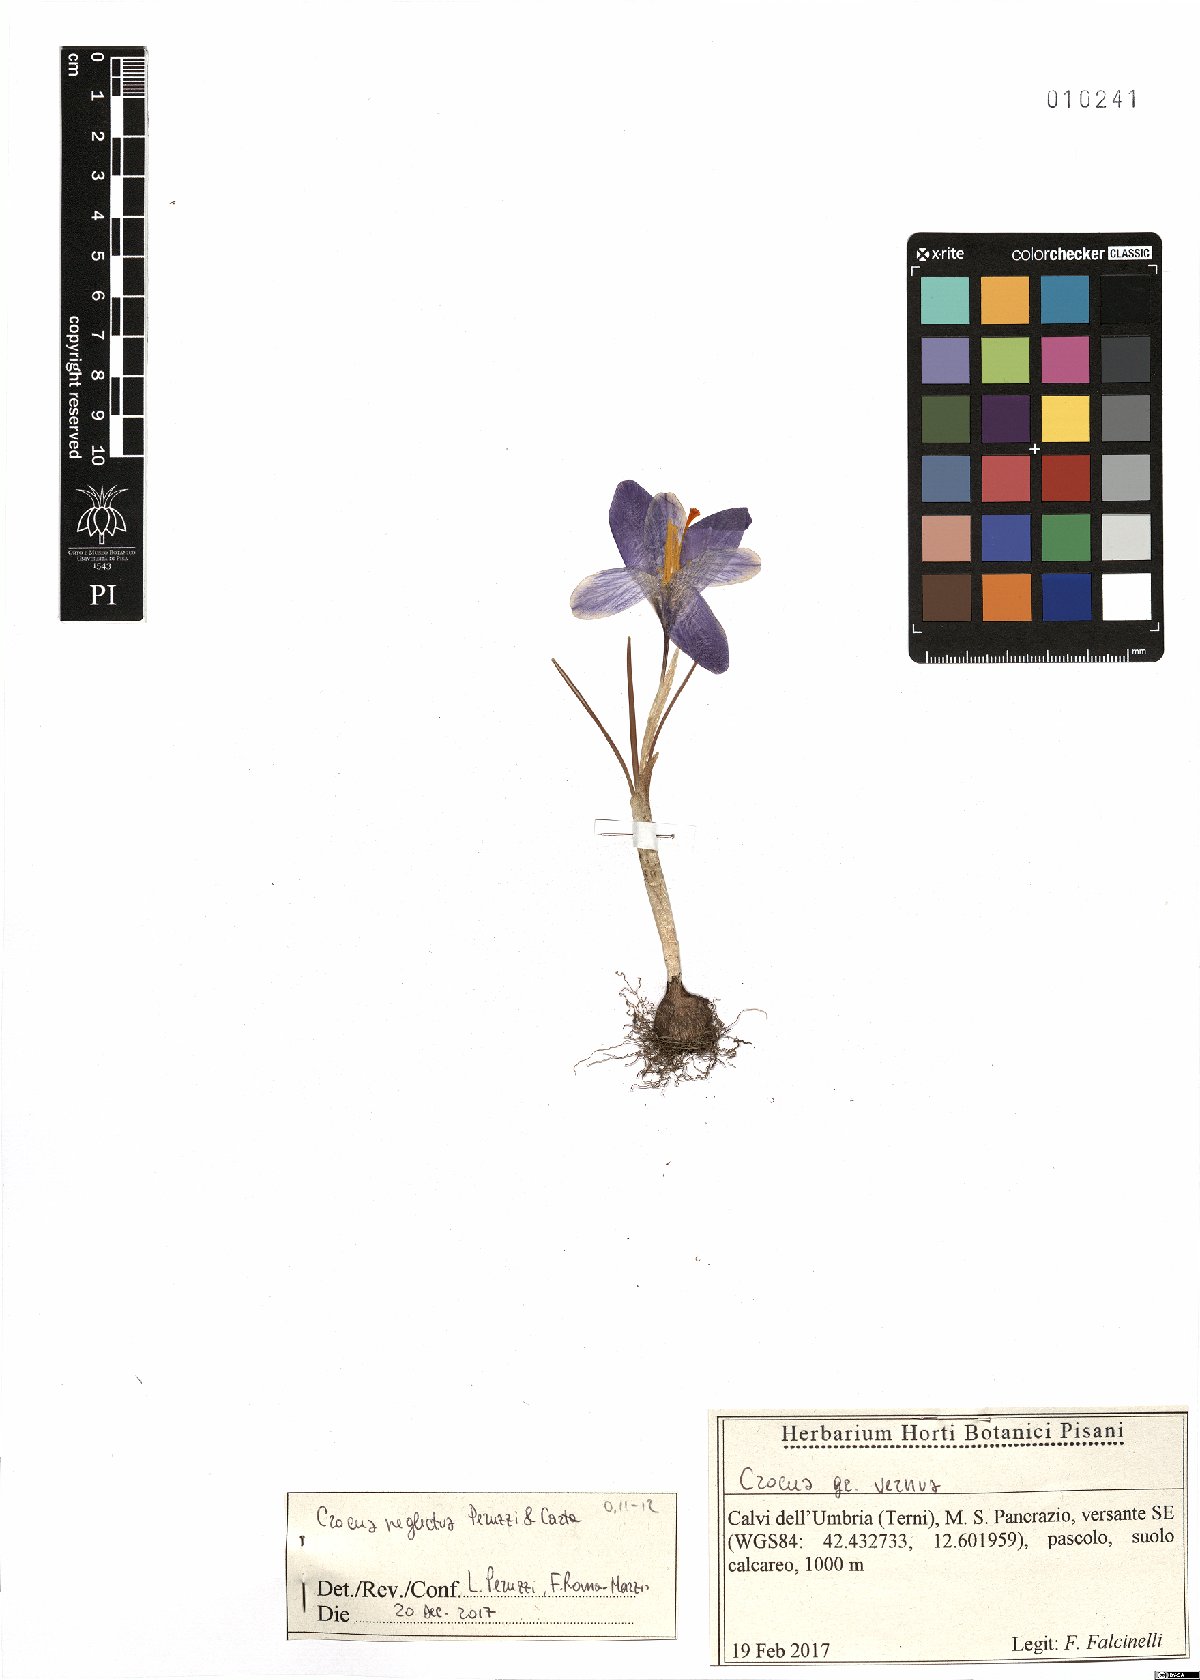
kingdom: Plantae
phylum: Tracheophyta
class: Liliopsida
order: Asparagales
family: Iridaceae
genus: Crocus
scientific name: Crocus neglectus
